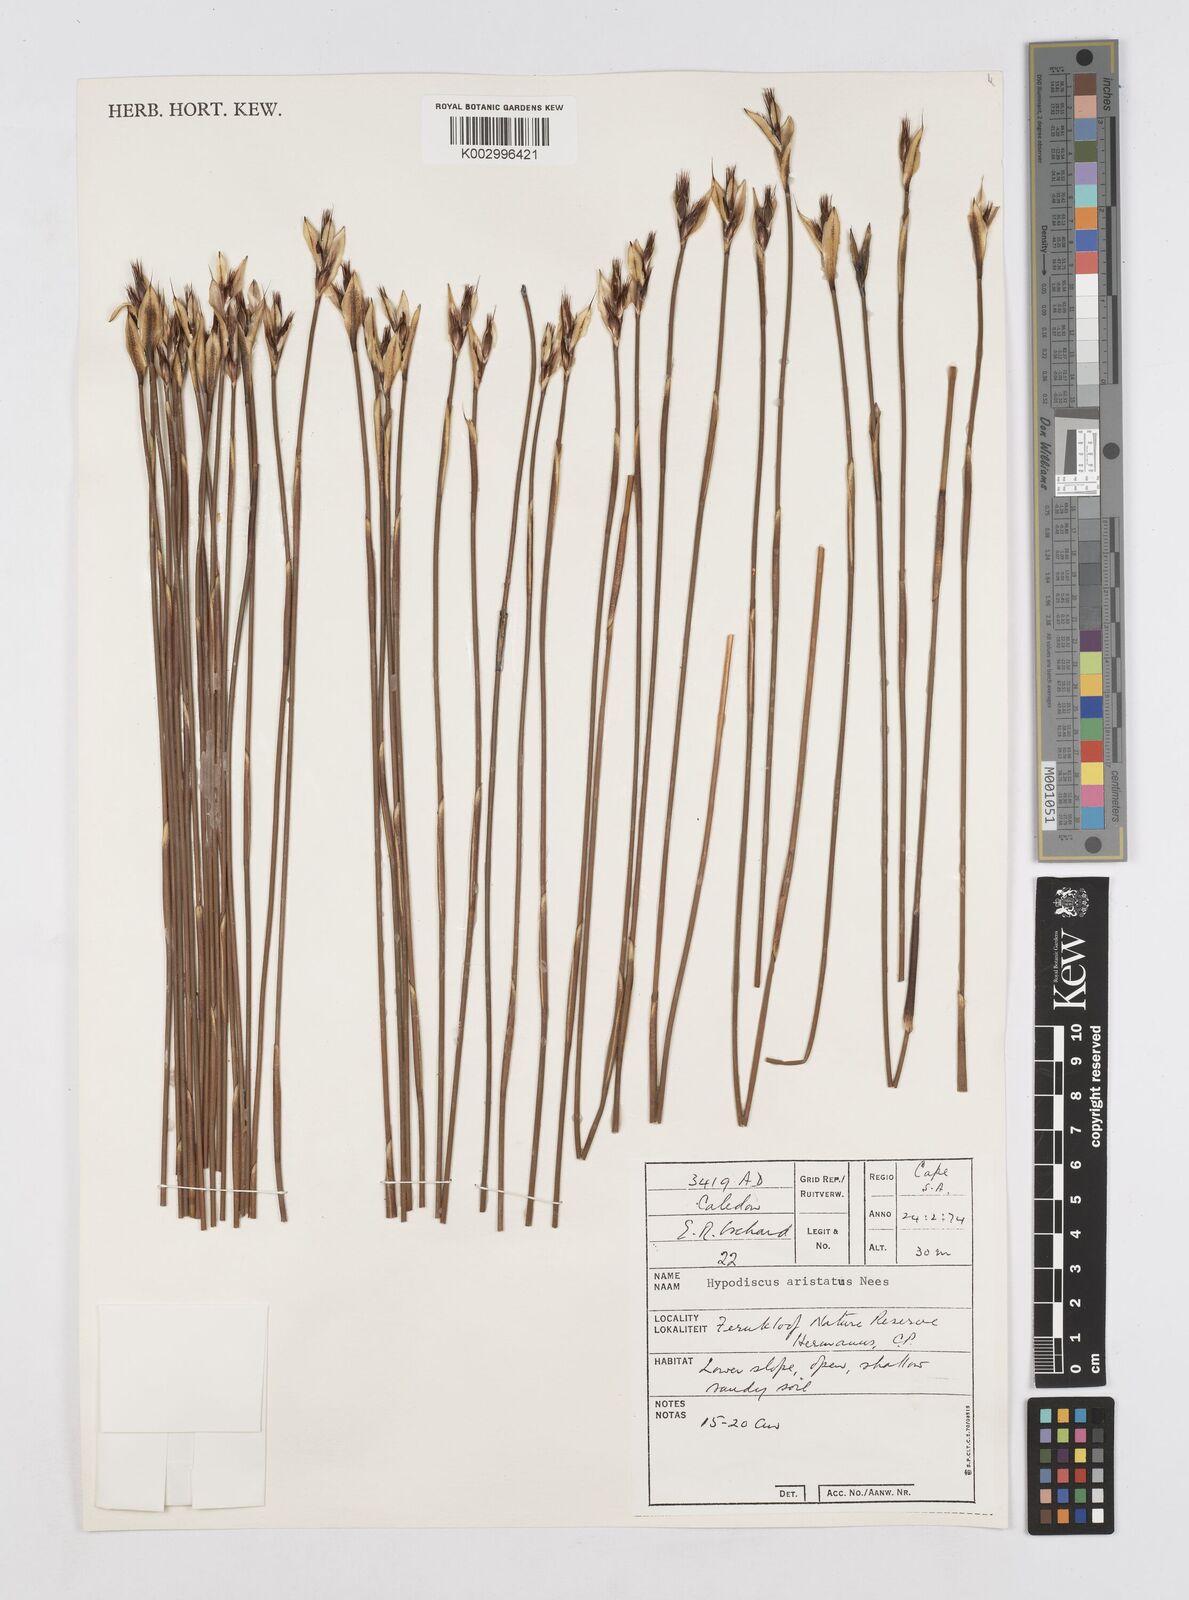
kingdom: Plantae
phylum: Tracheophyta
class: Liliopsida
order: Poales
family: Restionaceae
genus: Hypodiscus
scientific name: Hypodiscus aristatus
